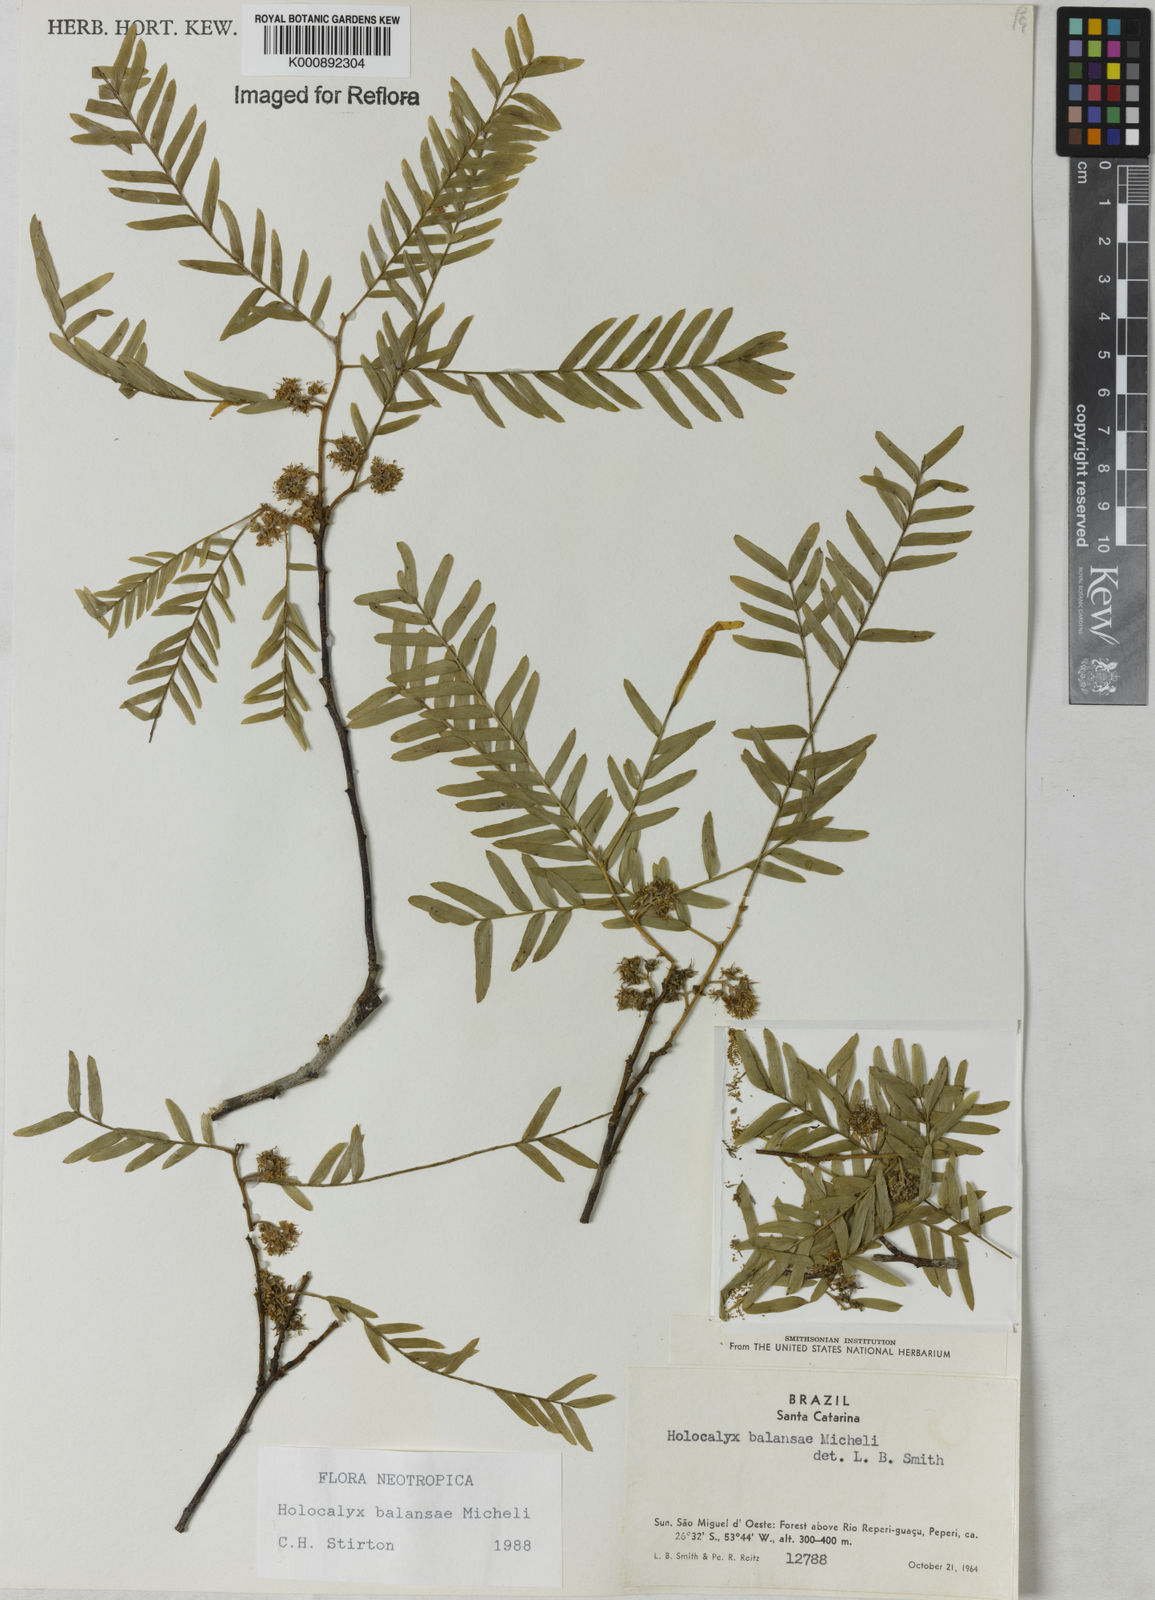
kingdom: Plantae
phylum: Tracheophyta
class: Magnoliopsida
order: Fabales
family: Fabaceae
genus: Holocalyx
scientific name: Holocalyx
